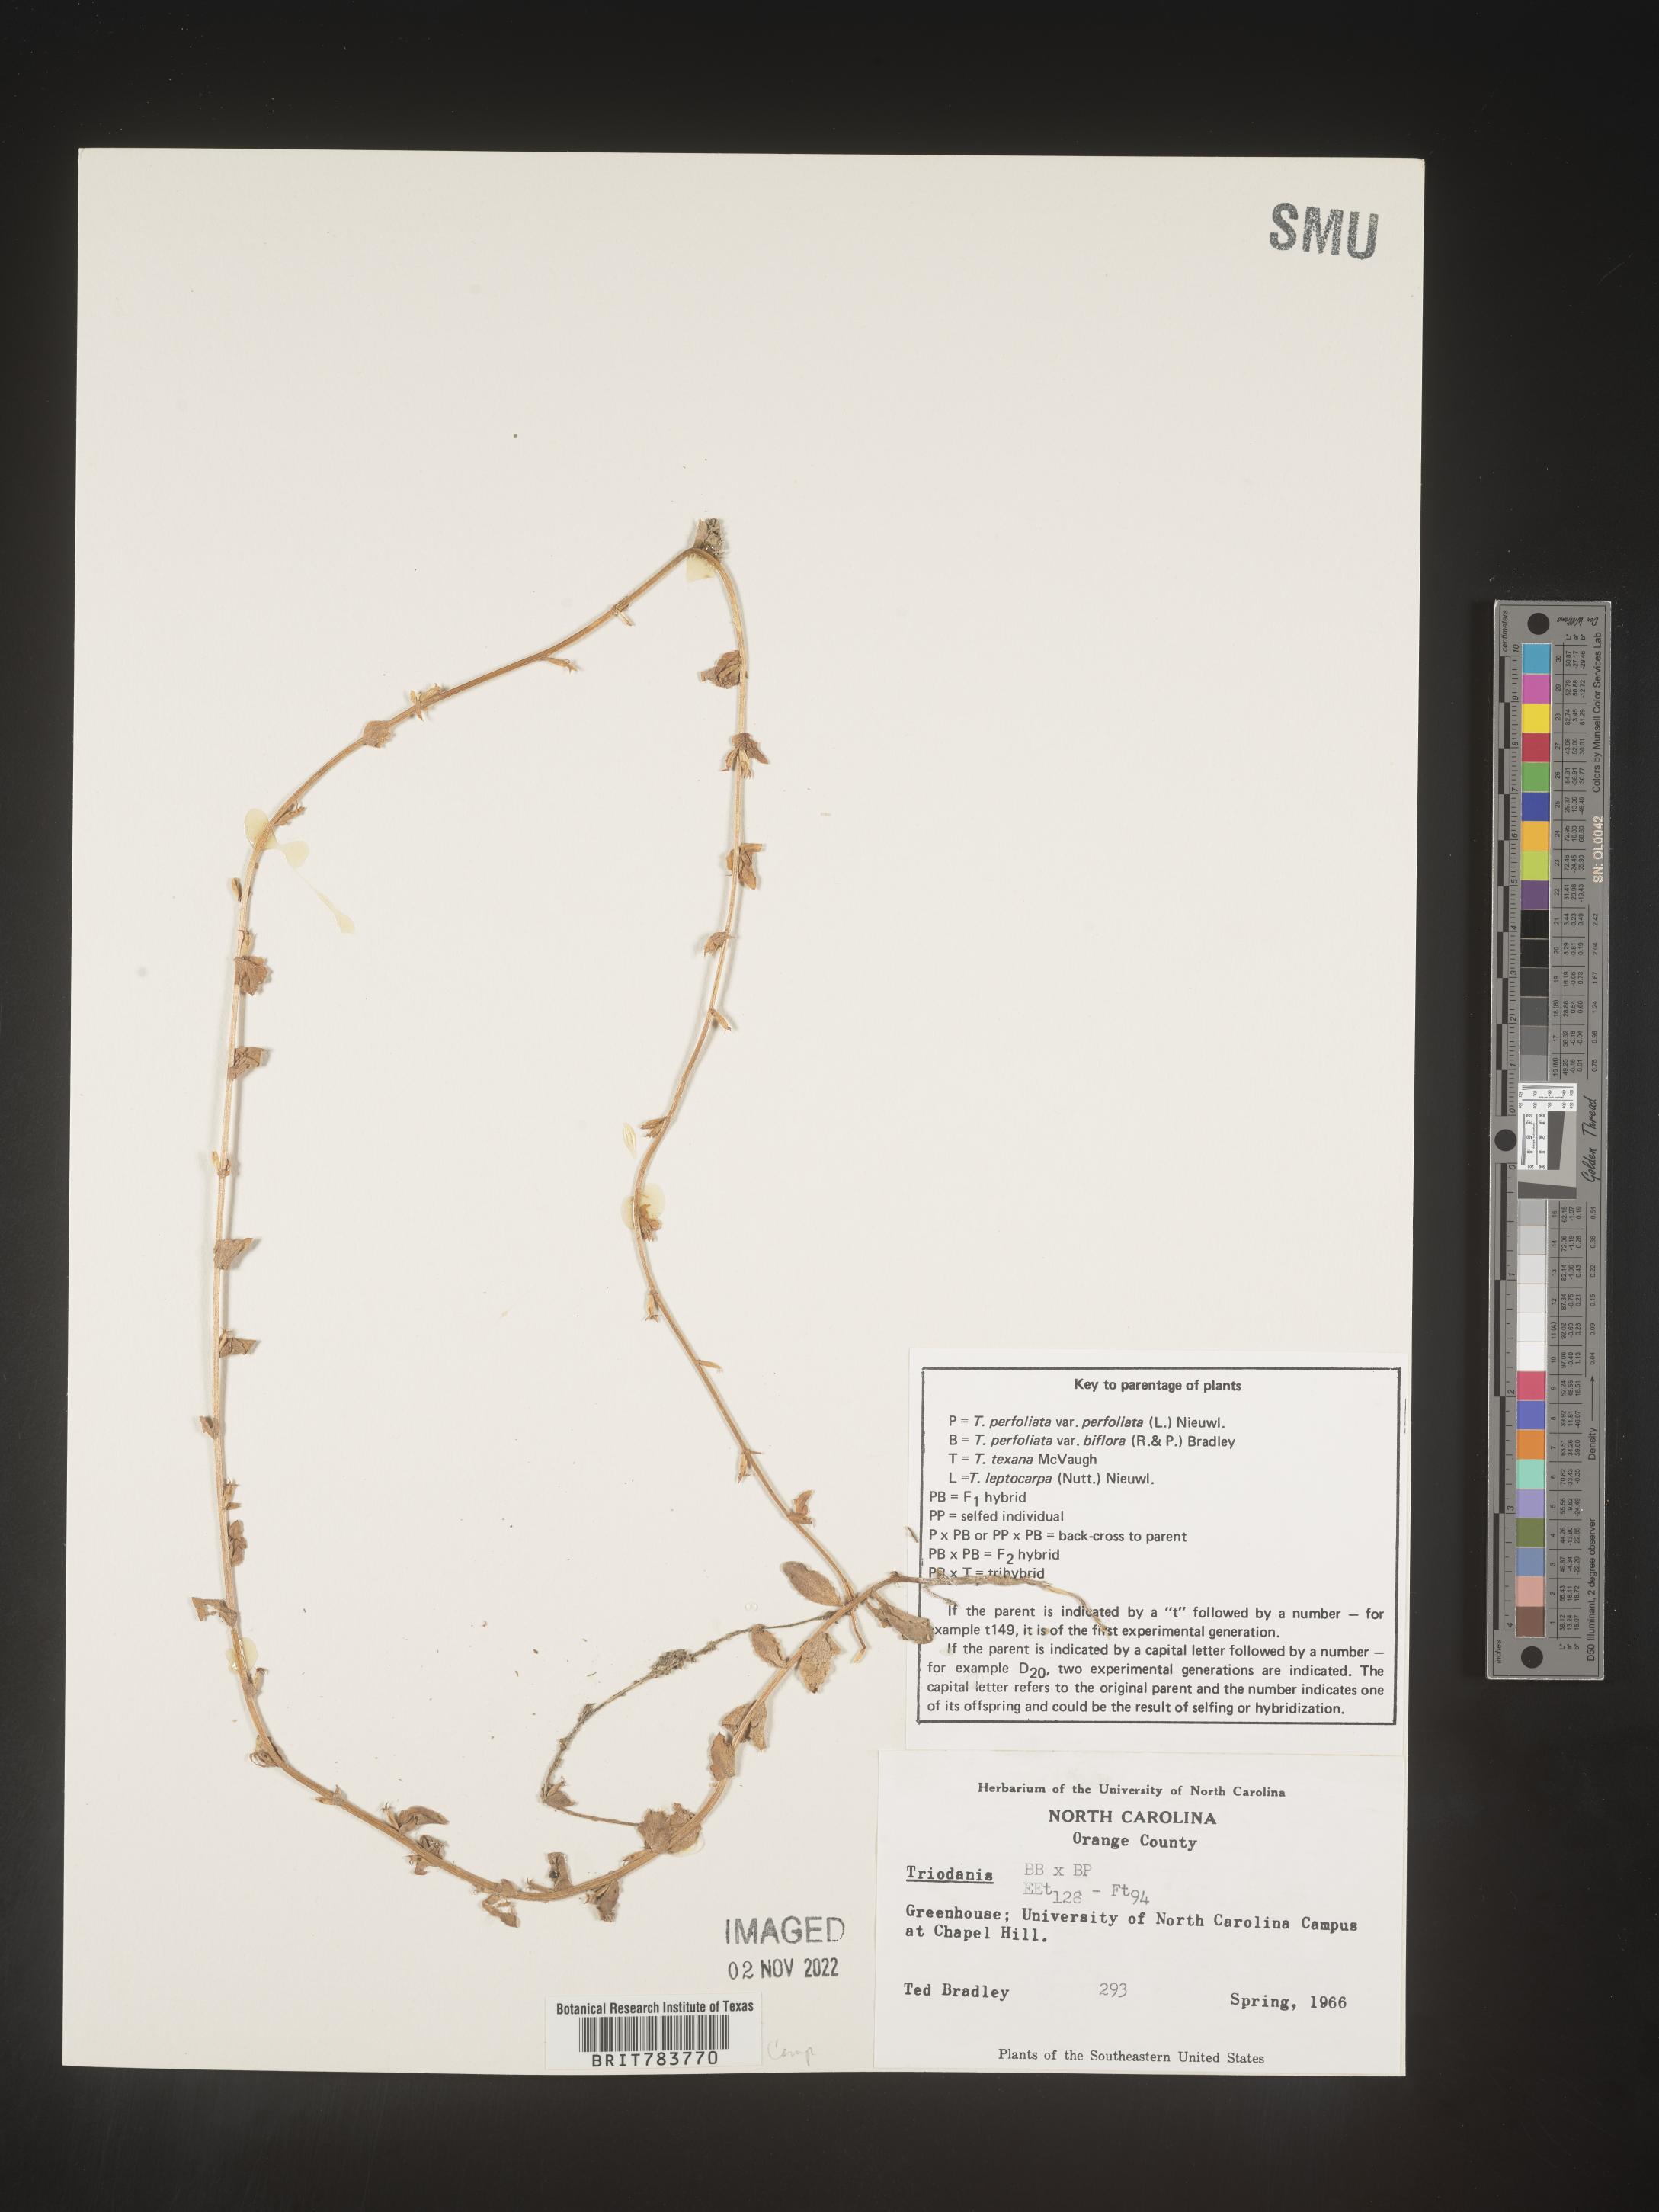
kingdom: Plantae
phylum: Tracheophyta
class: Magnoliopsida
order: Asterales
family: Campanulaceae
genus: Triodanis
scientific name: Triodanis
